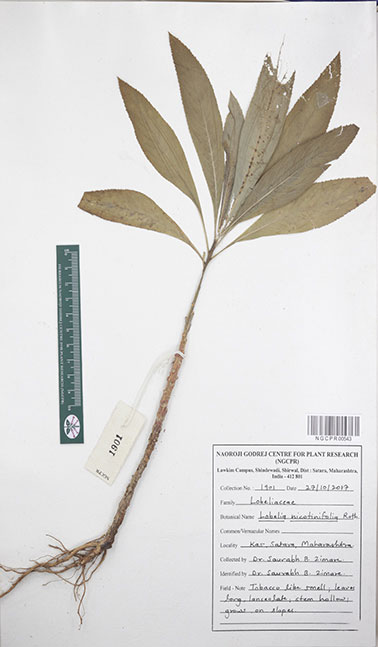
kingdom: Plantae
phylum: Tracheophyta
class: Magnoliopsida
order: Asterales
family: Campanulaceae
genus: Lobelia
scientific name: Lobelia nicotianifolia
